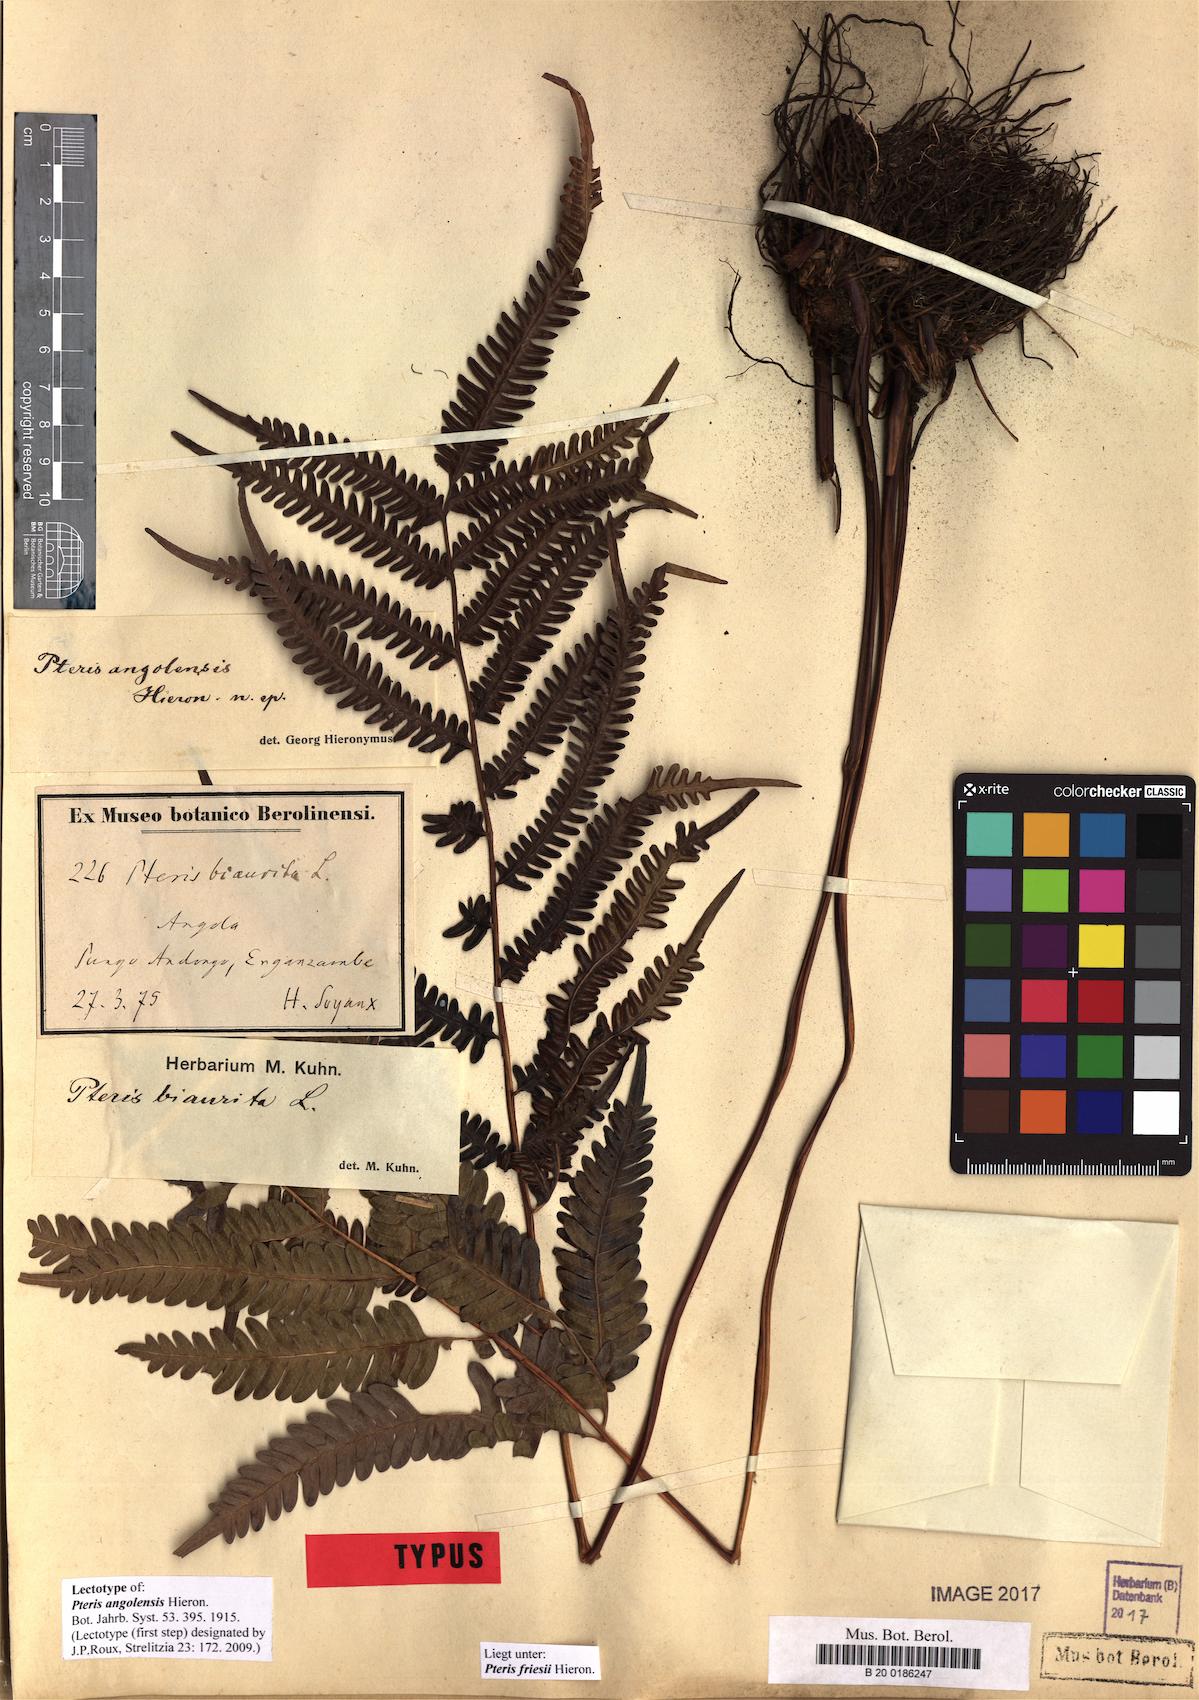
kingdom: Plantae
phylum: Tracheophyta
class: Polypodiopsida
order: Polypodiales
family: Pteridaceae
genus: Pteris
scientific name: Pteris friesii
